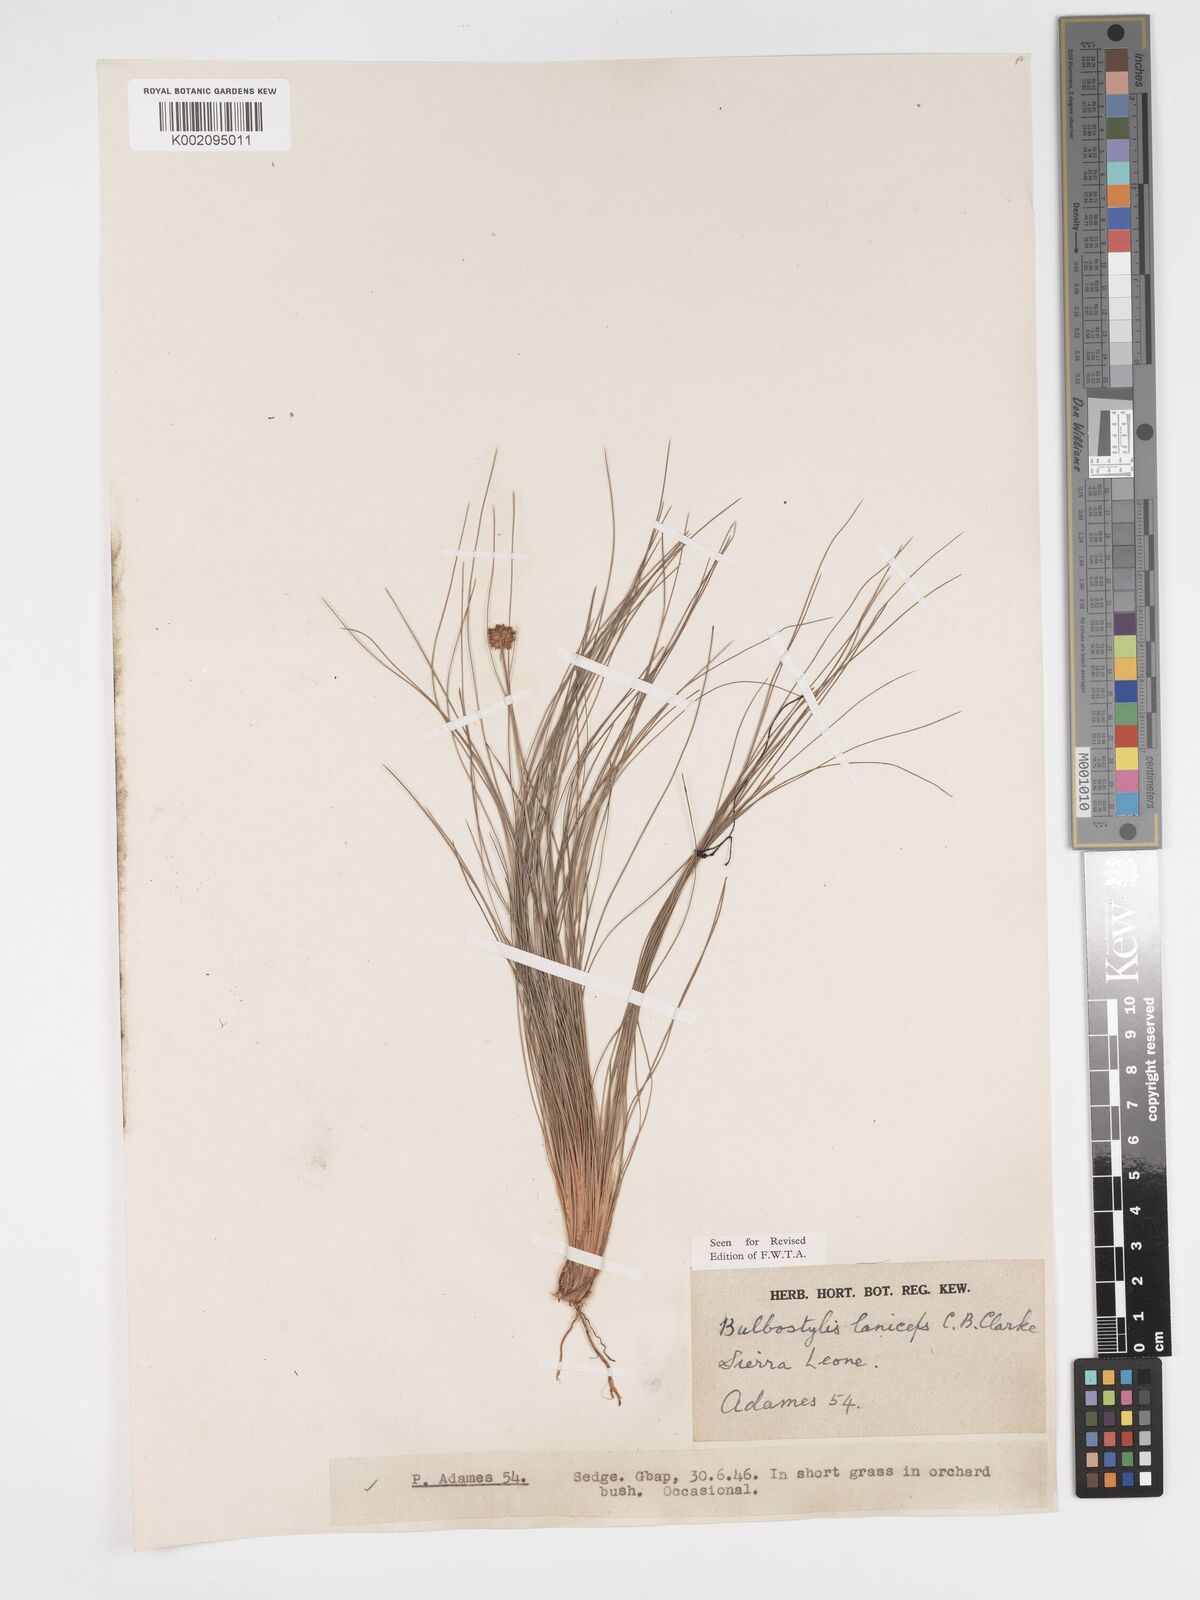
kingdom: Plantae
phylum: Tracheophyta
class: Liliopsida
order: Poales
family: Cyperaceae
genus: Bulbostylis
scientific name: Bulbostylis laniceps
